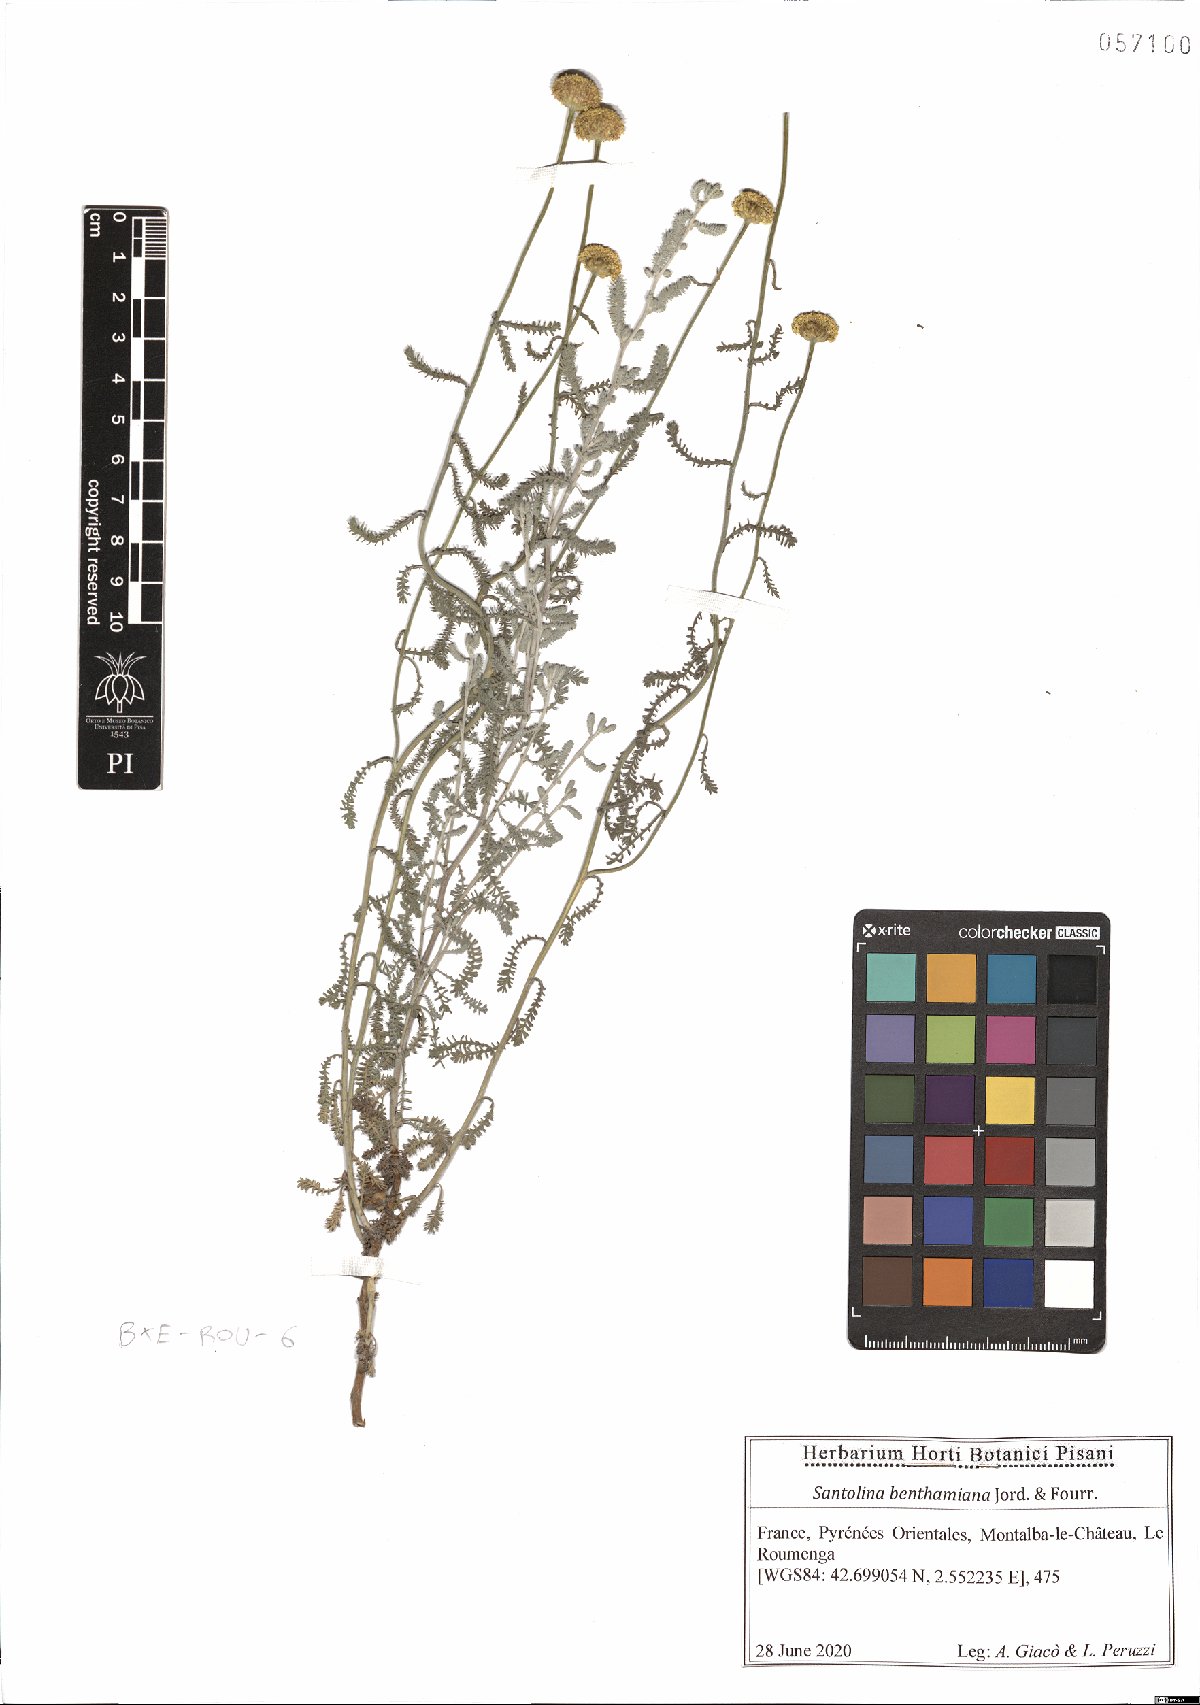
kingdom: Plantae
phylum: Tracheophyta
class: Magnoliopsida
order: Asterales
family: Asteraceae
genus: Santolina
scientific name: Santolina benthamiana
